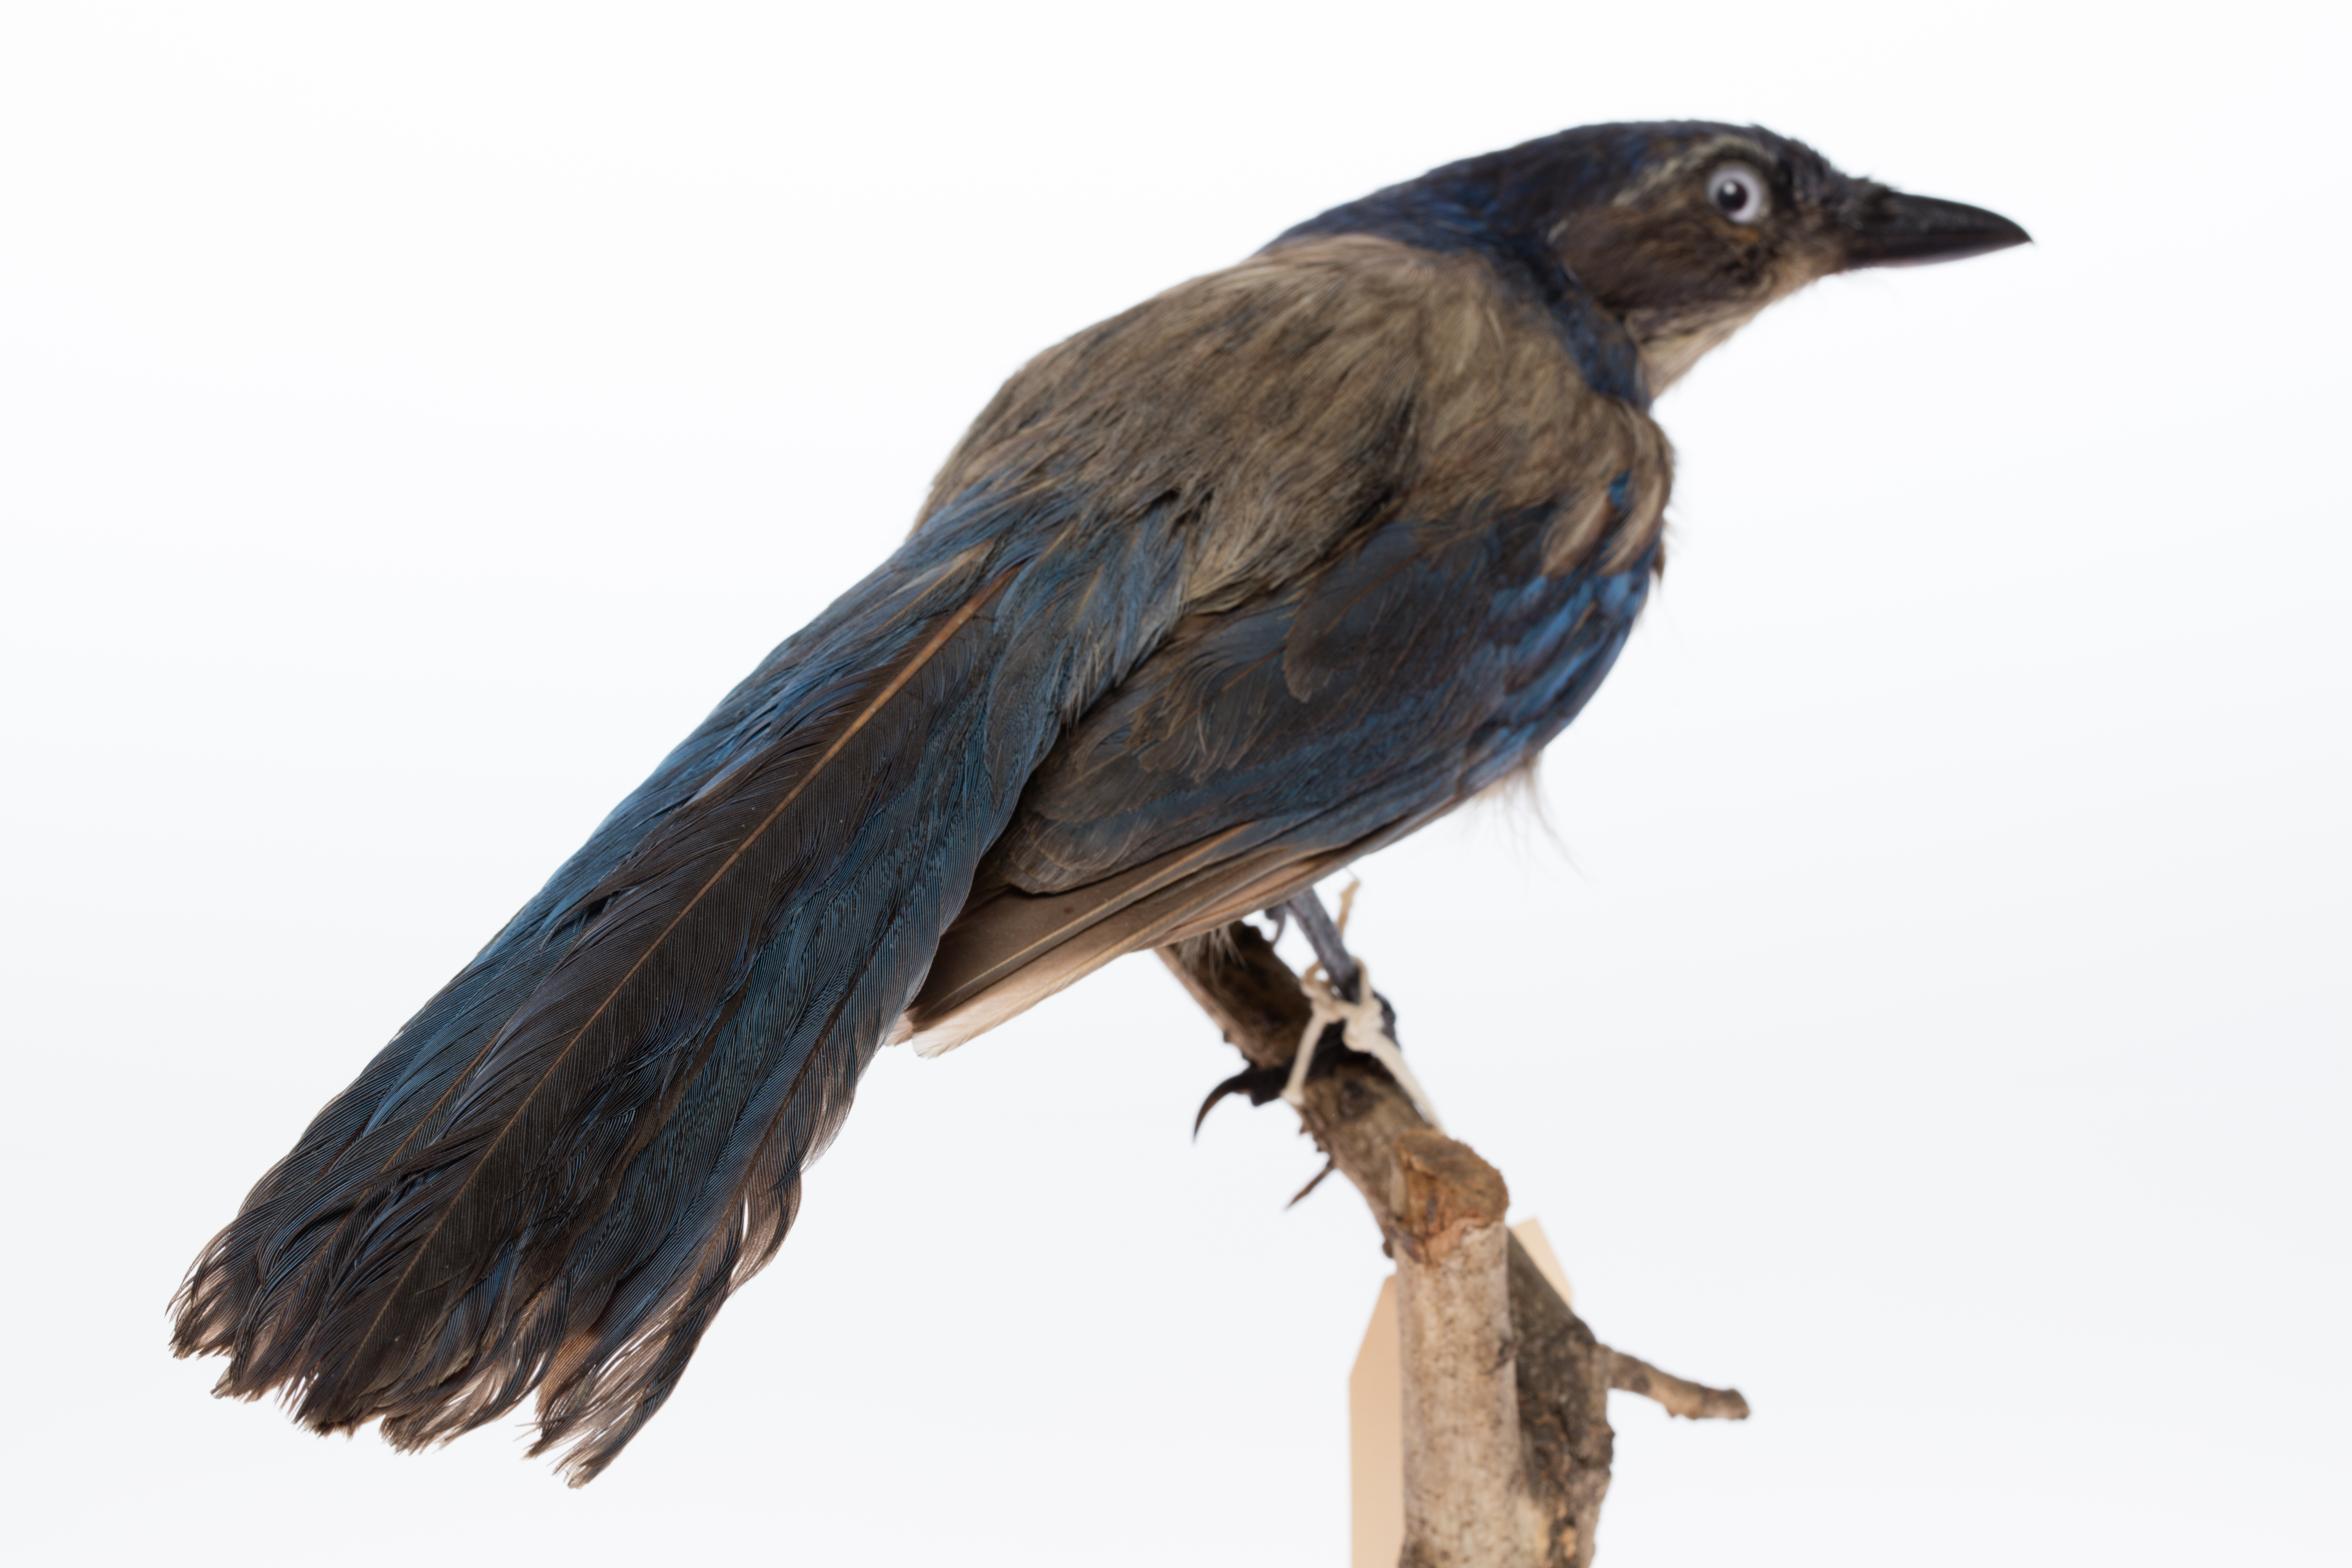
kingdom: Animalia
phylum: Chordata
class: Aves
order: Passeriformes
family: Corvidae
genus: Aphelocoma
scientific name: Aphelocoma coerulescens
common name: Florida scrub jay
